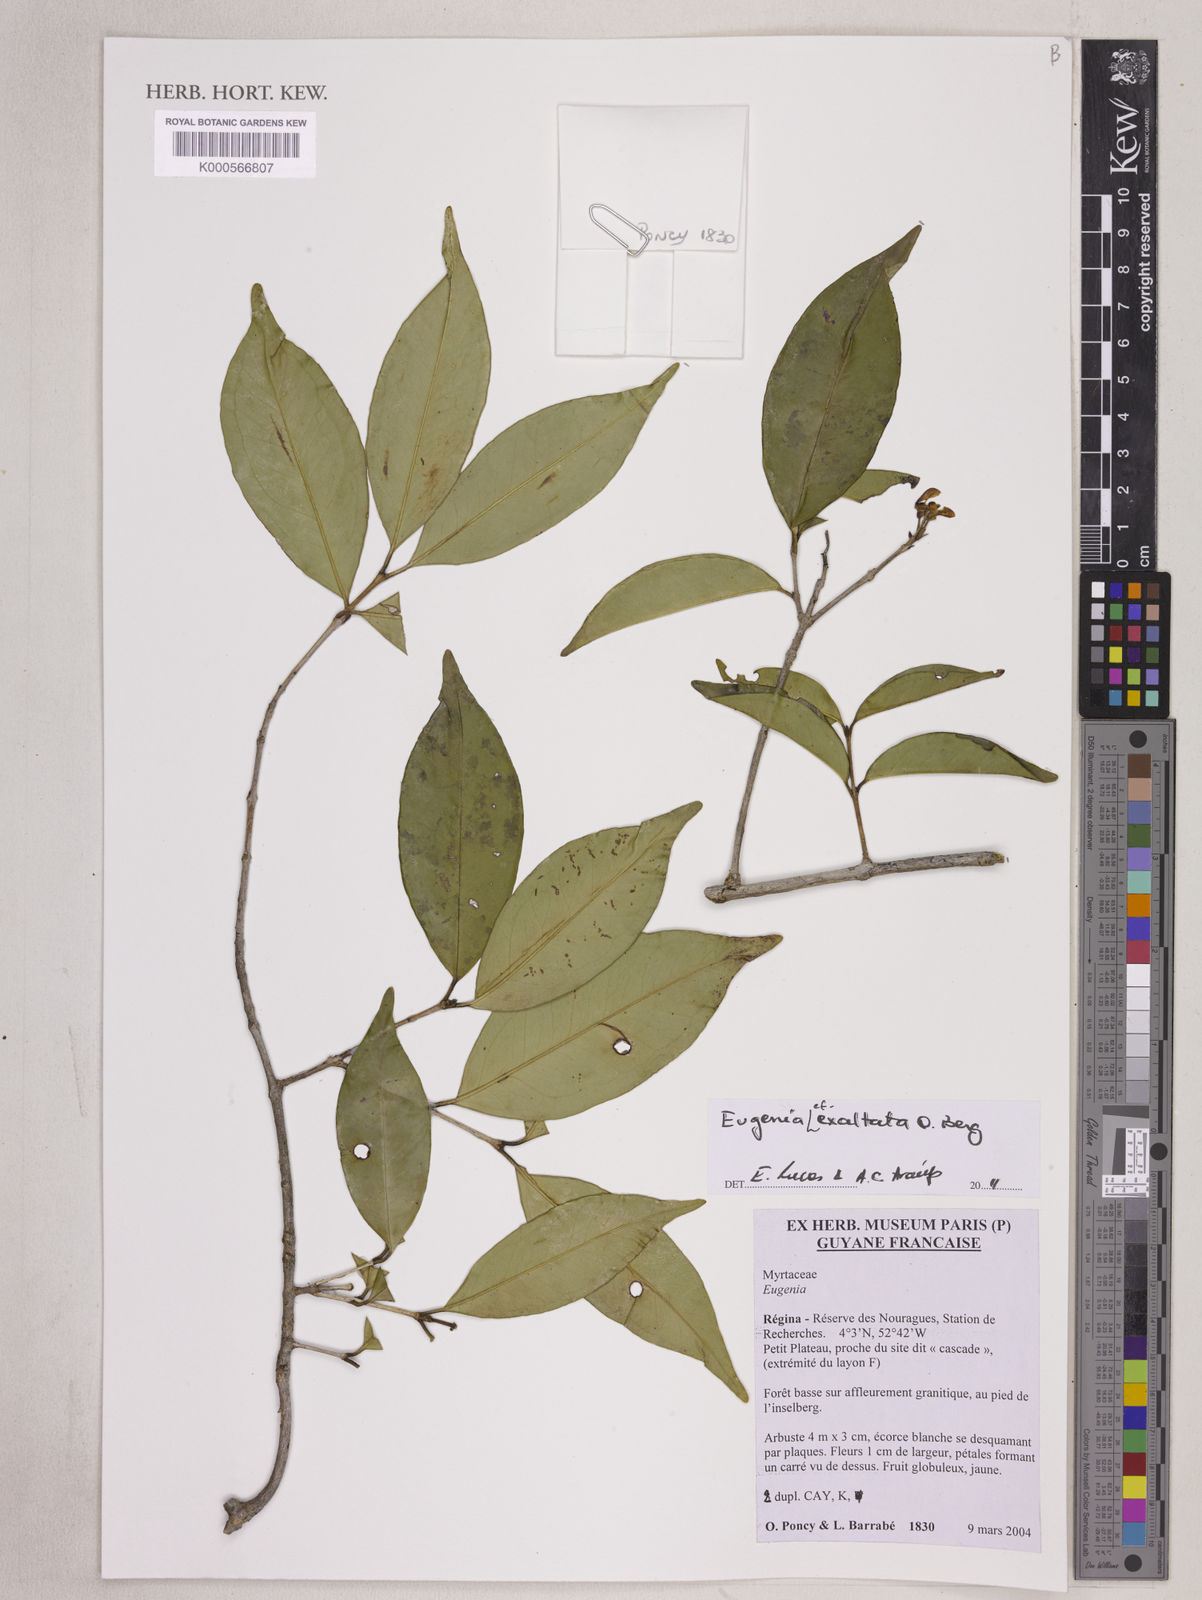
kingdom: Plantae
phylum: Tracheophyta
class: Magnoliopsida
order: Myrtales
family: Myrtaceae
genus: Eugenia
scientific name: Eugenia exaltata
